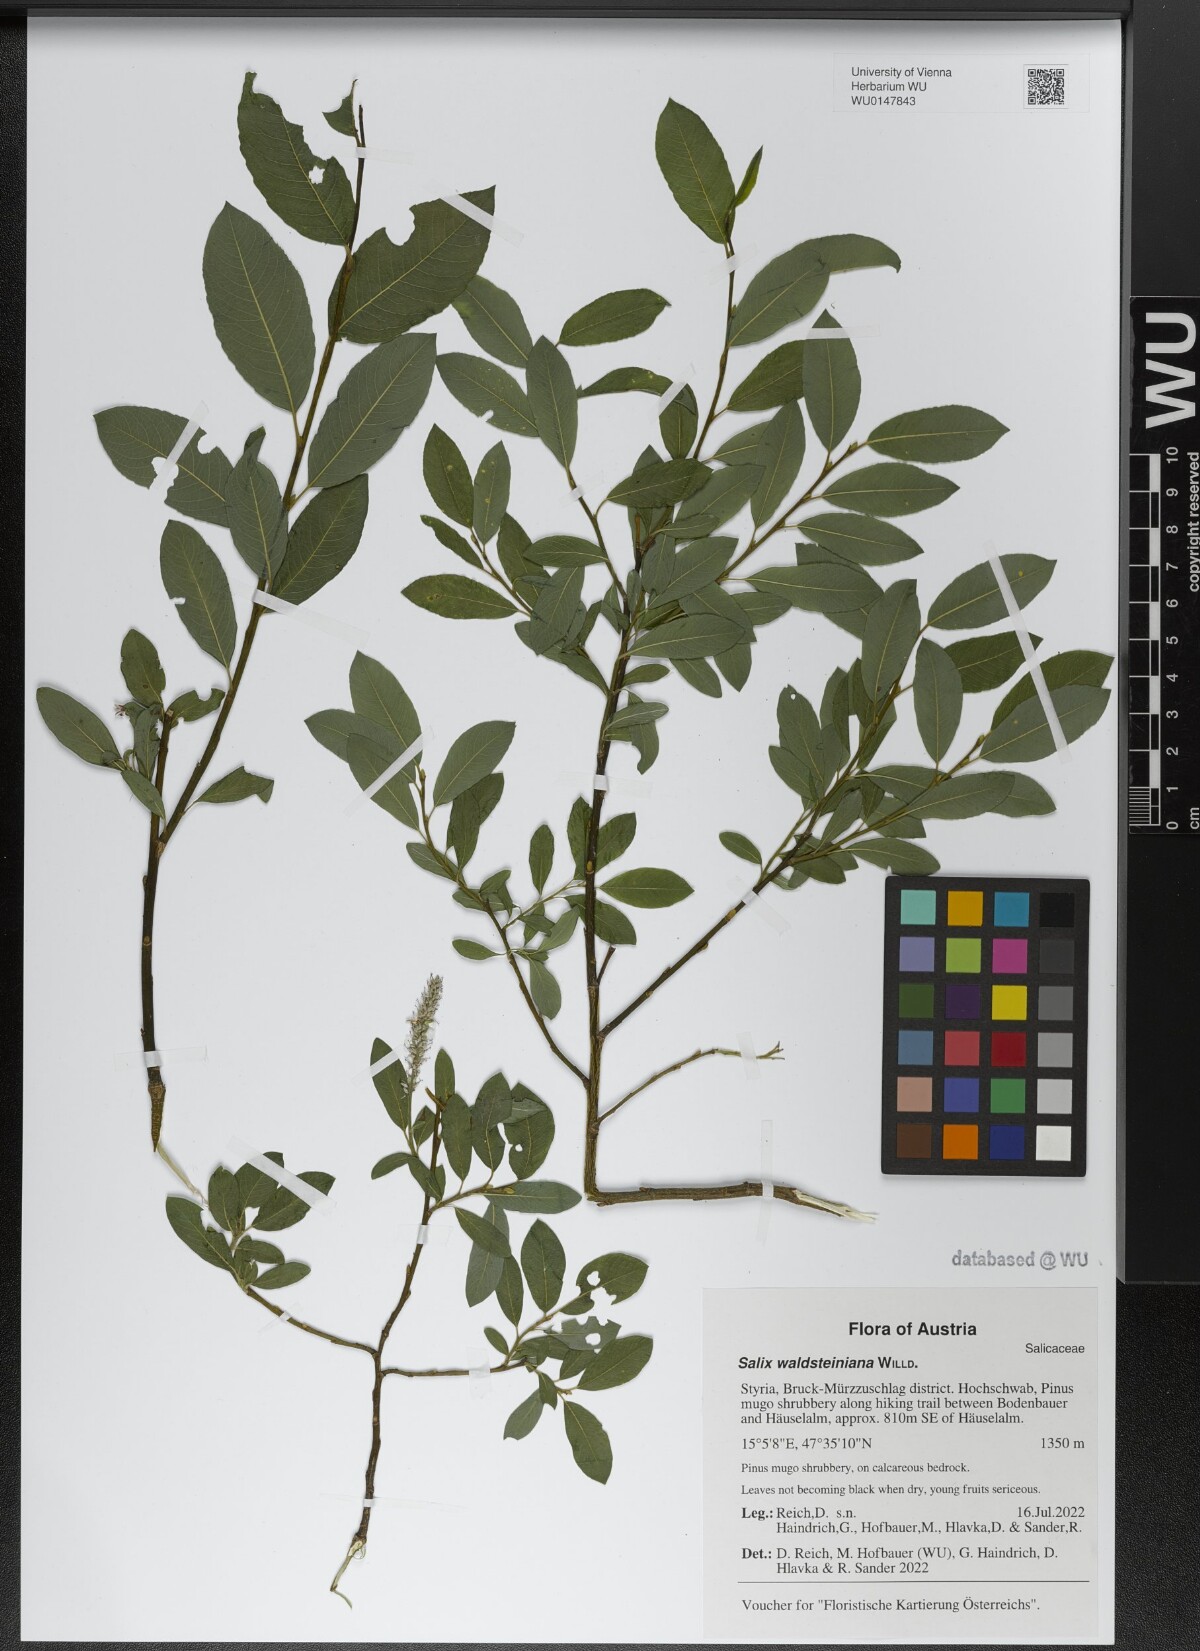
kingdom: Plantae
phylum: Tracheophyta
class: Magnoliopsida
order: Malpighiales
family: Salicaceae
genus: Salix
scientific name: Salix waldsteiniana
